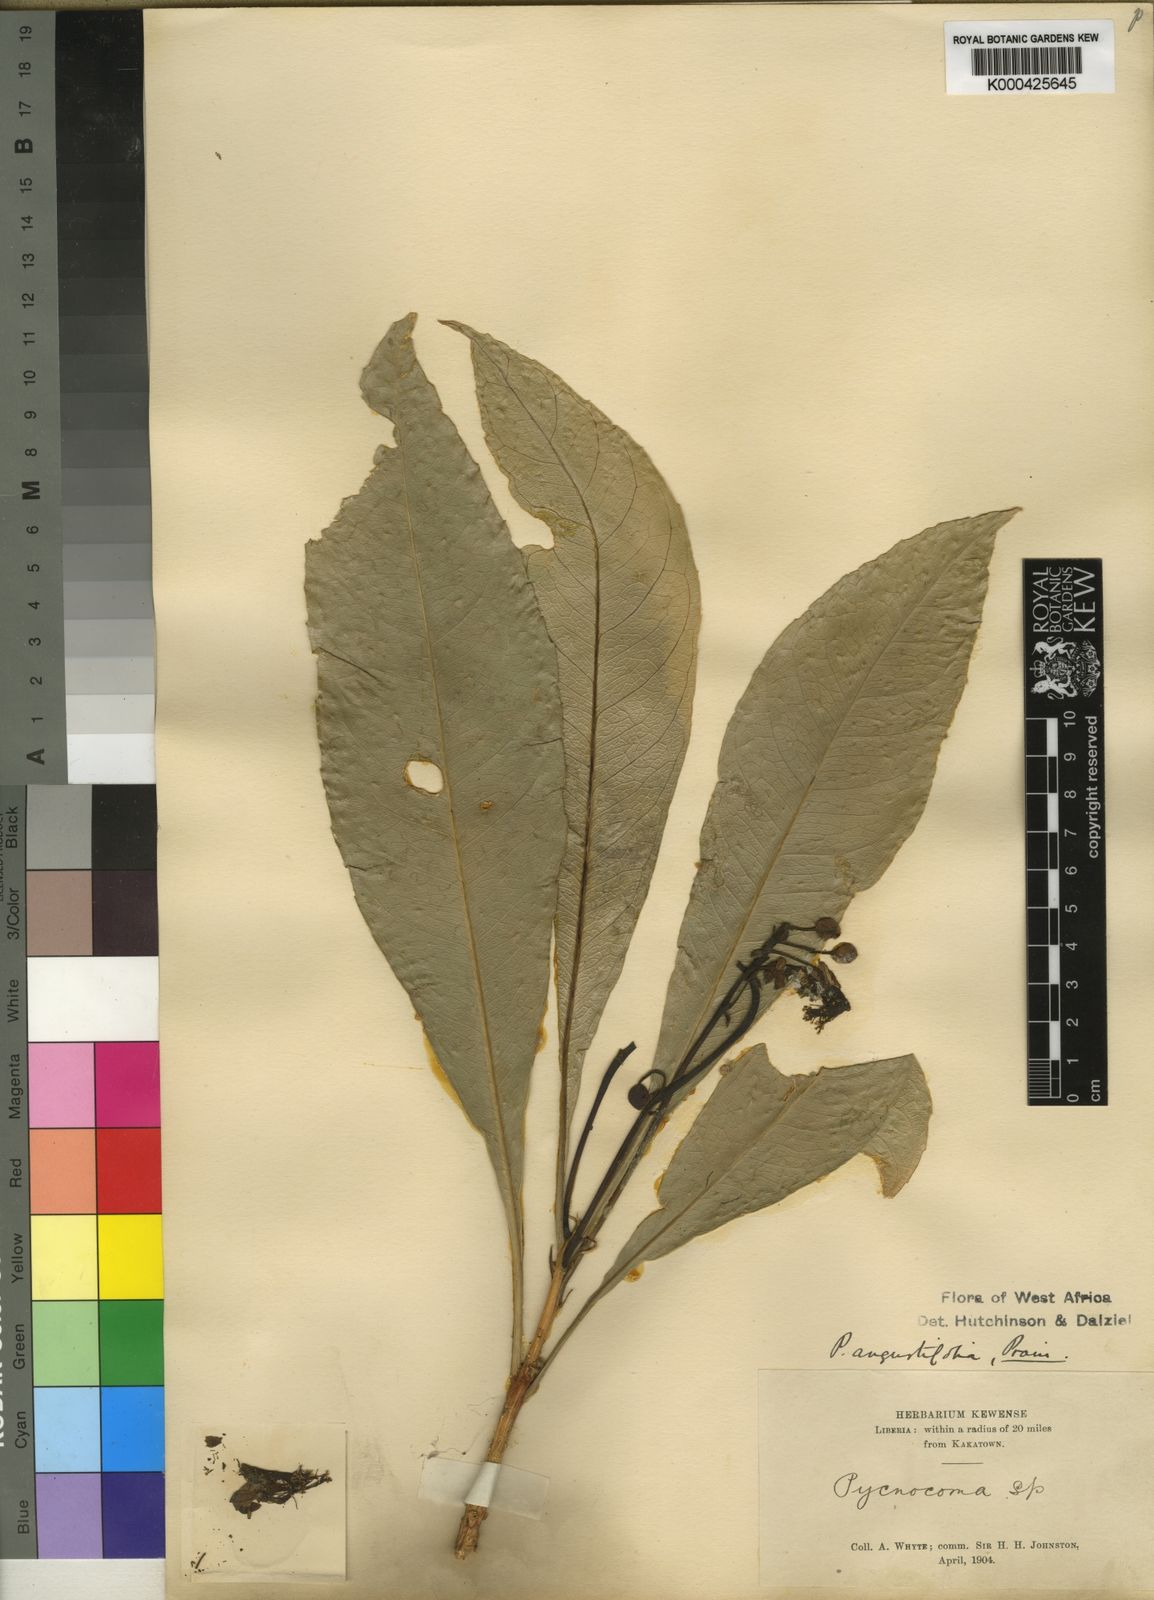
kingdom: Plantae
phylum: Tracheophyta
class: Magnoliopsida
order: Malpighiales
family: Euphorbiaceae
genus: Pycnocoma
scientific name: Pycnocoma angustifolia
